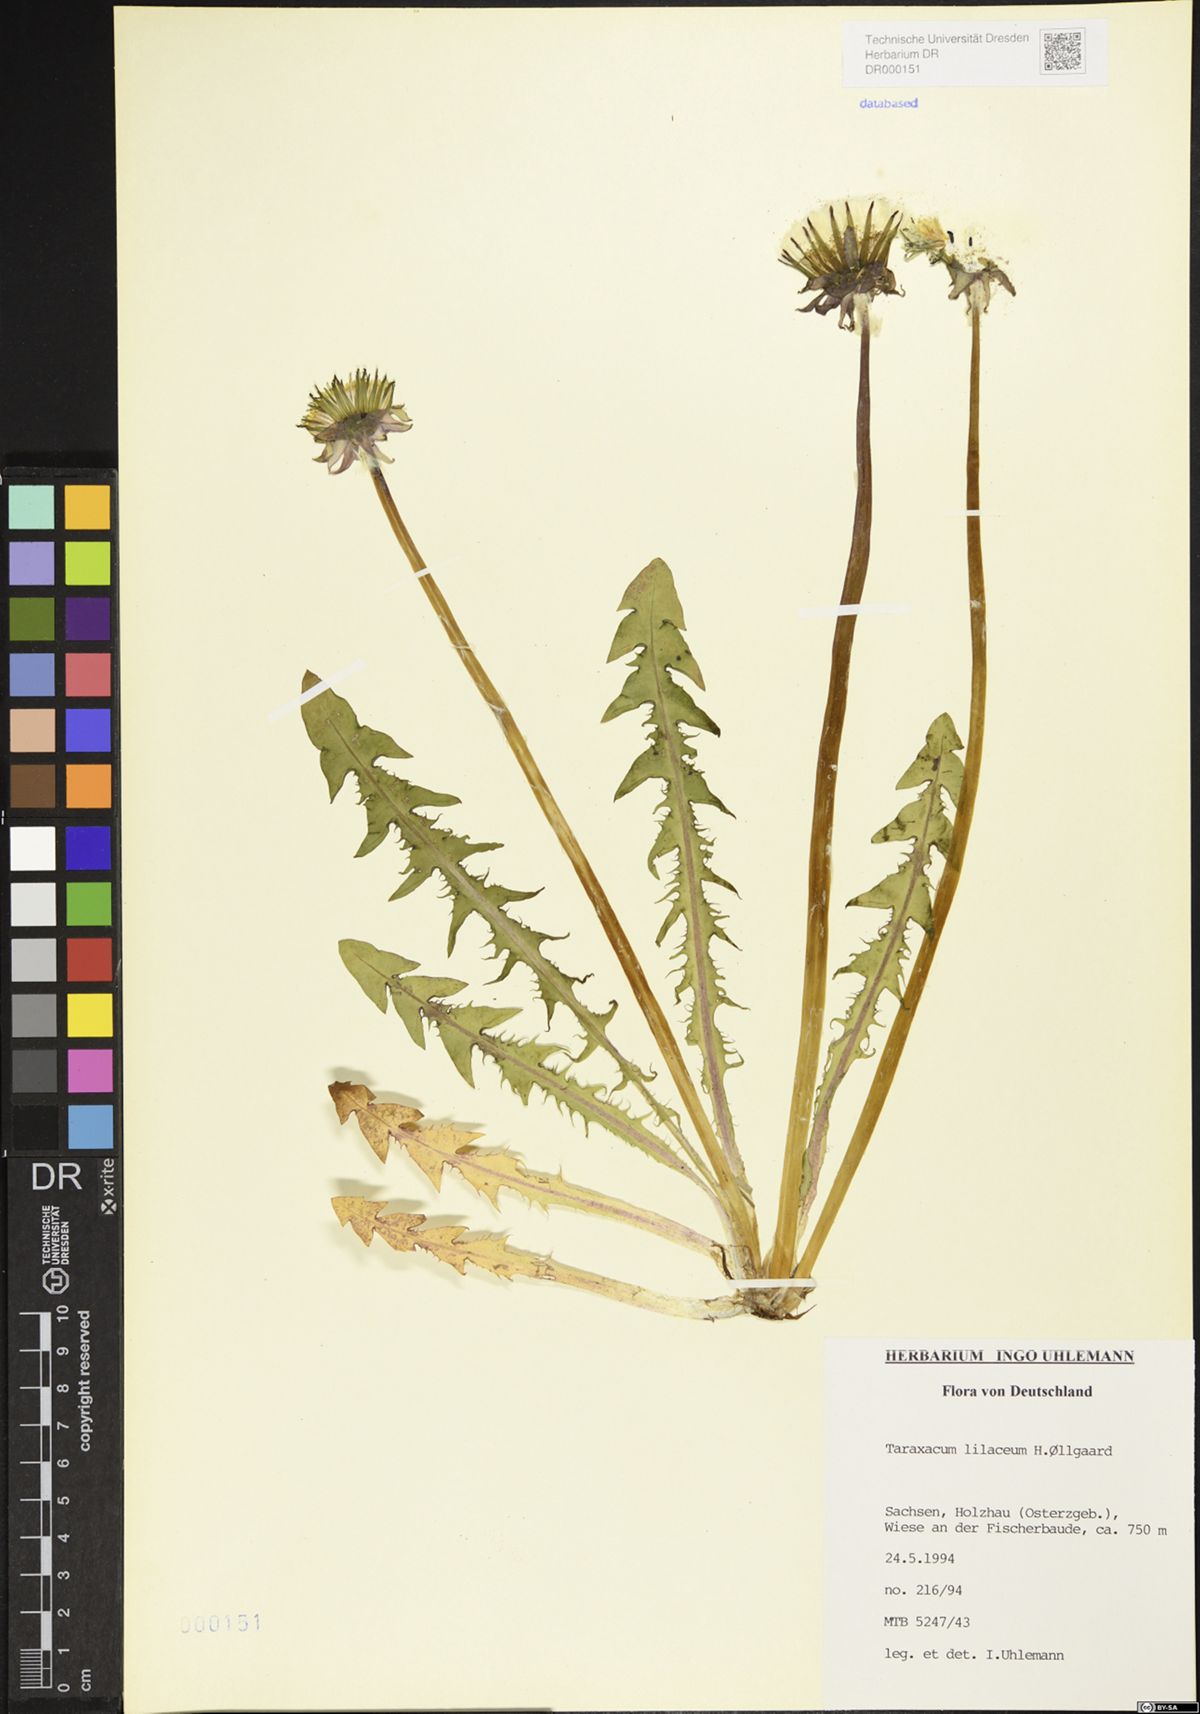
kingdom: Plantae
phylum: Tracheophyta
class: Magnoliopsida
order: Asterales
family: Asteraceae
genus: Taraxacum
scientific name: Taraxacum floccosum
